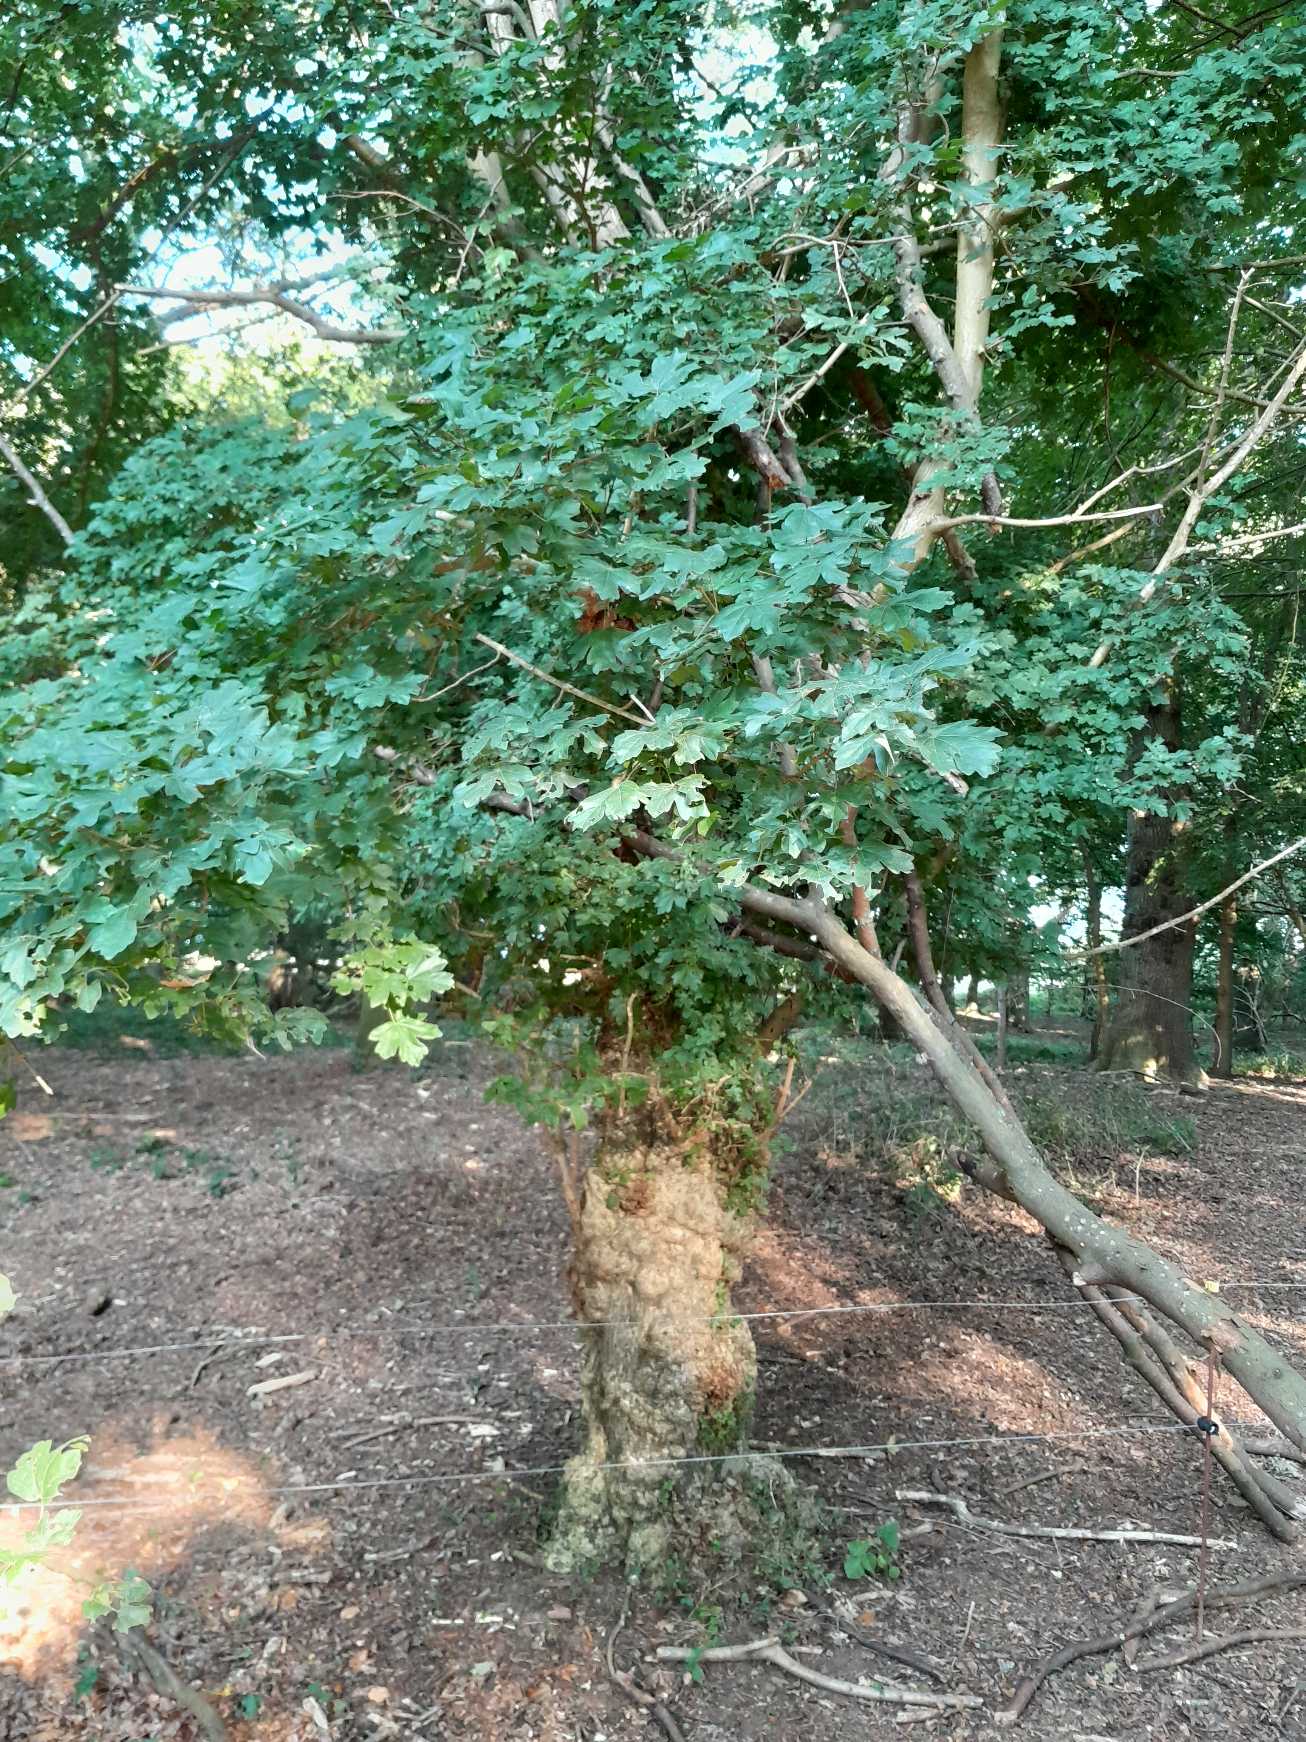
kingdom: Plantae
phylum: Tracheophyta
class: Magnoliopsida
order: Sapindales
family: Sapindaceae
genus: Acer
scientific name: Acer campestre
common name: Navr
